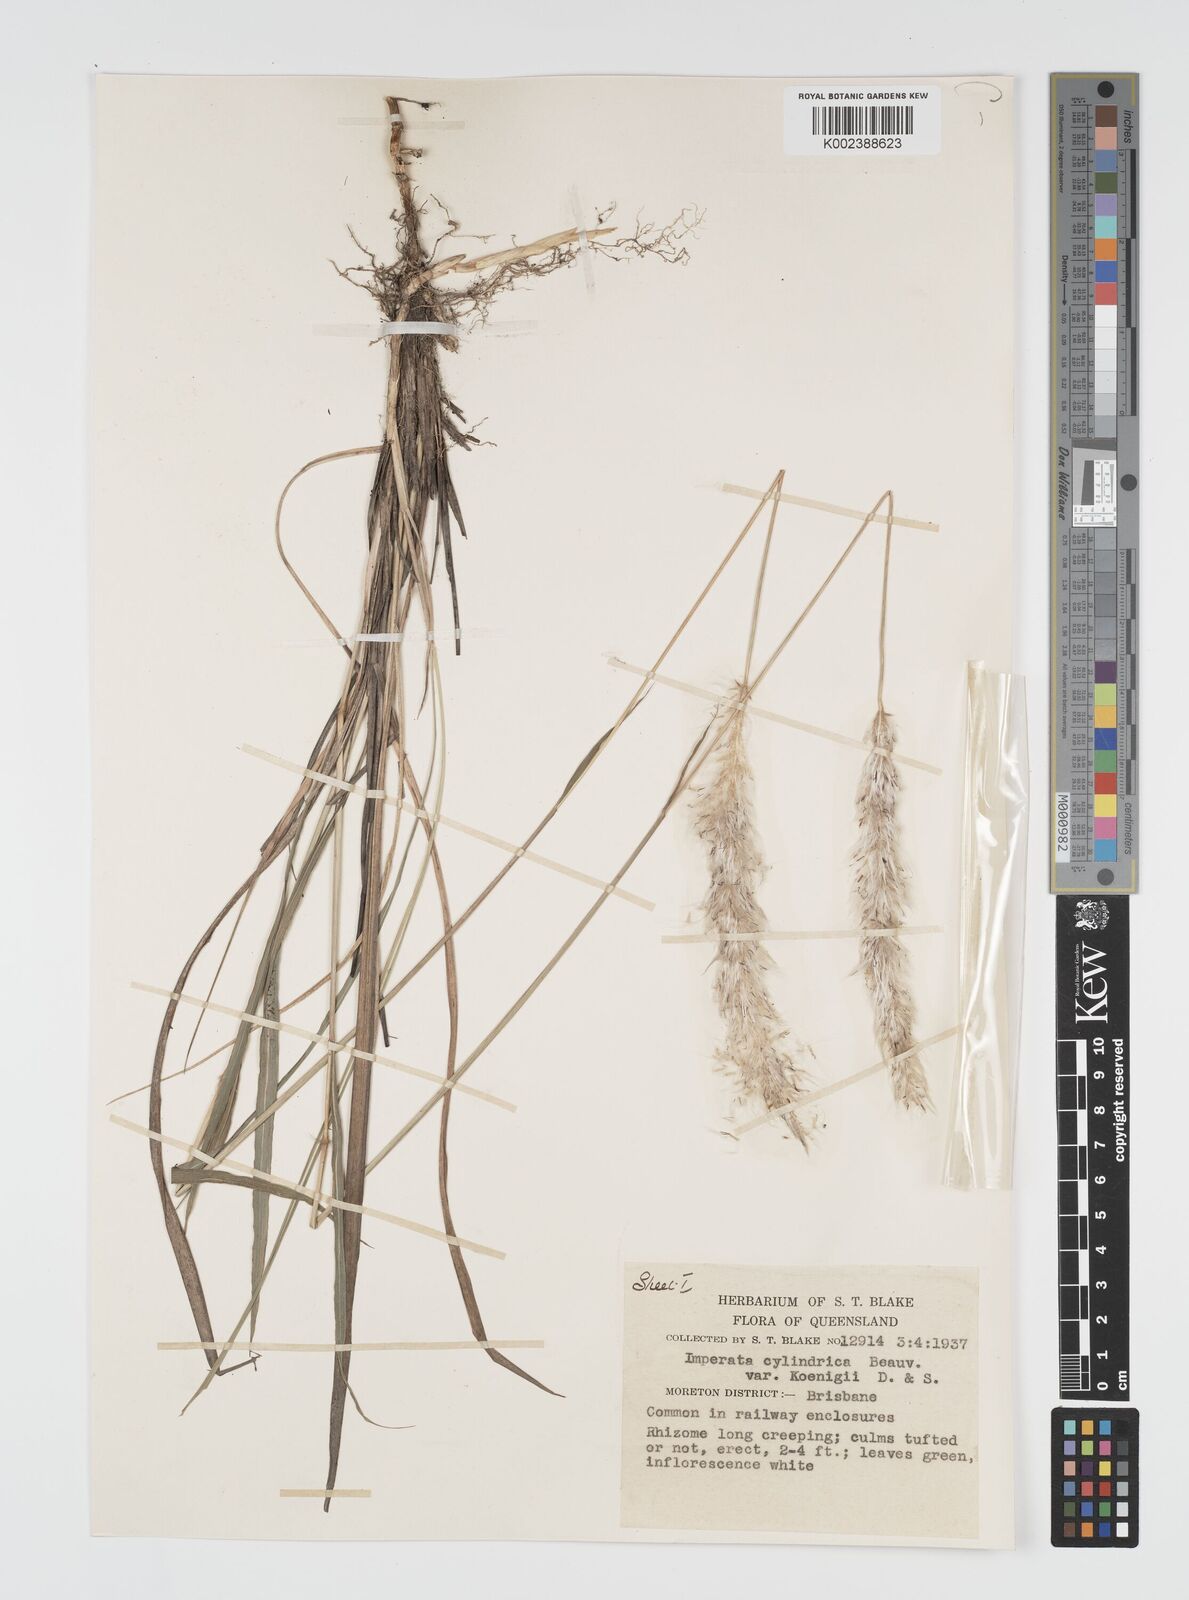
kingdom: Plantae
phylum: Tracheophyta
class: Liliopsida
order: Poales
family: Poaceae
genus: Imperata
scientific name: Imperata cylindrica
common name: Cogongrass
